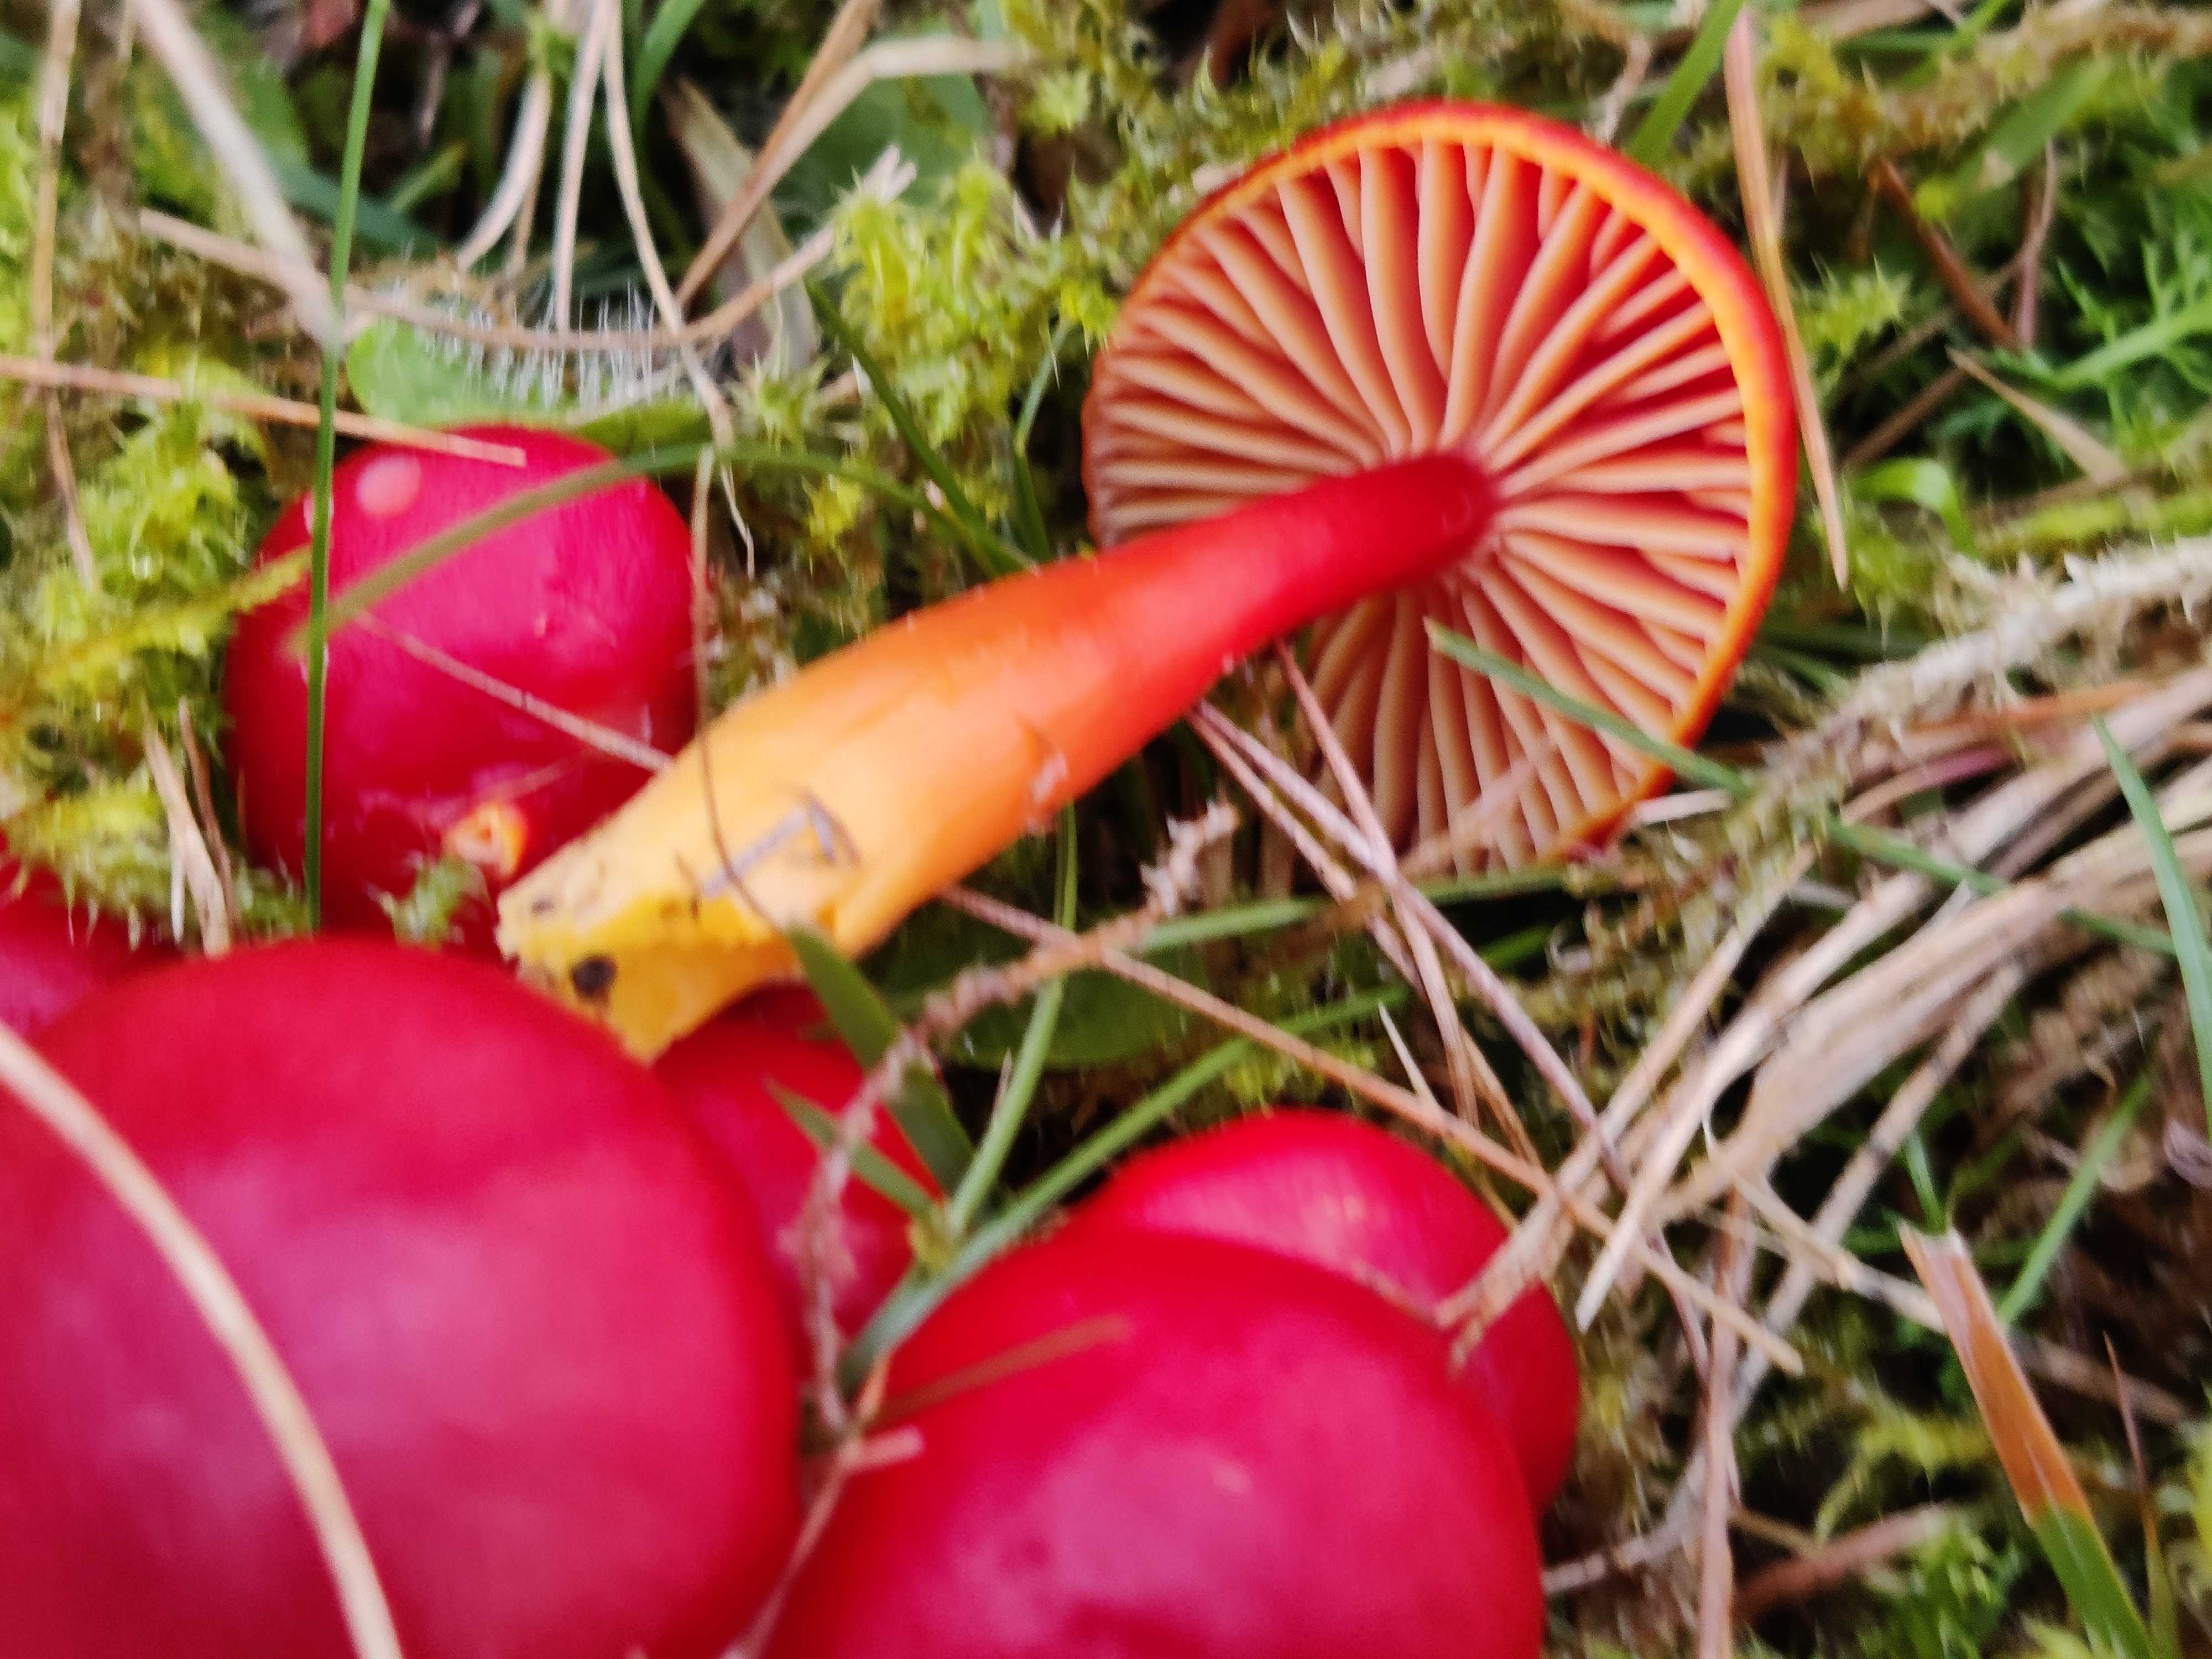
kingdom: Fungi
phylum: Basidiomycota
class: Agaricomycetes
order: Agaricales
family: Hygrophoraceae
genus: Hygrocybe
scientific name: Hygrocybe coccinea
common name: cinnober-vokshat
